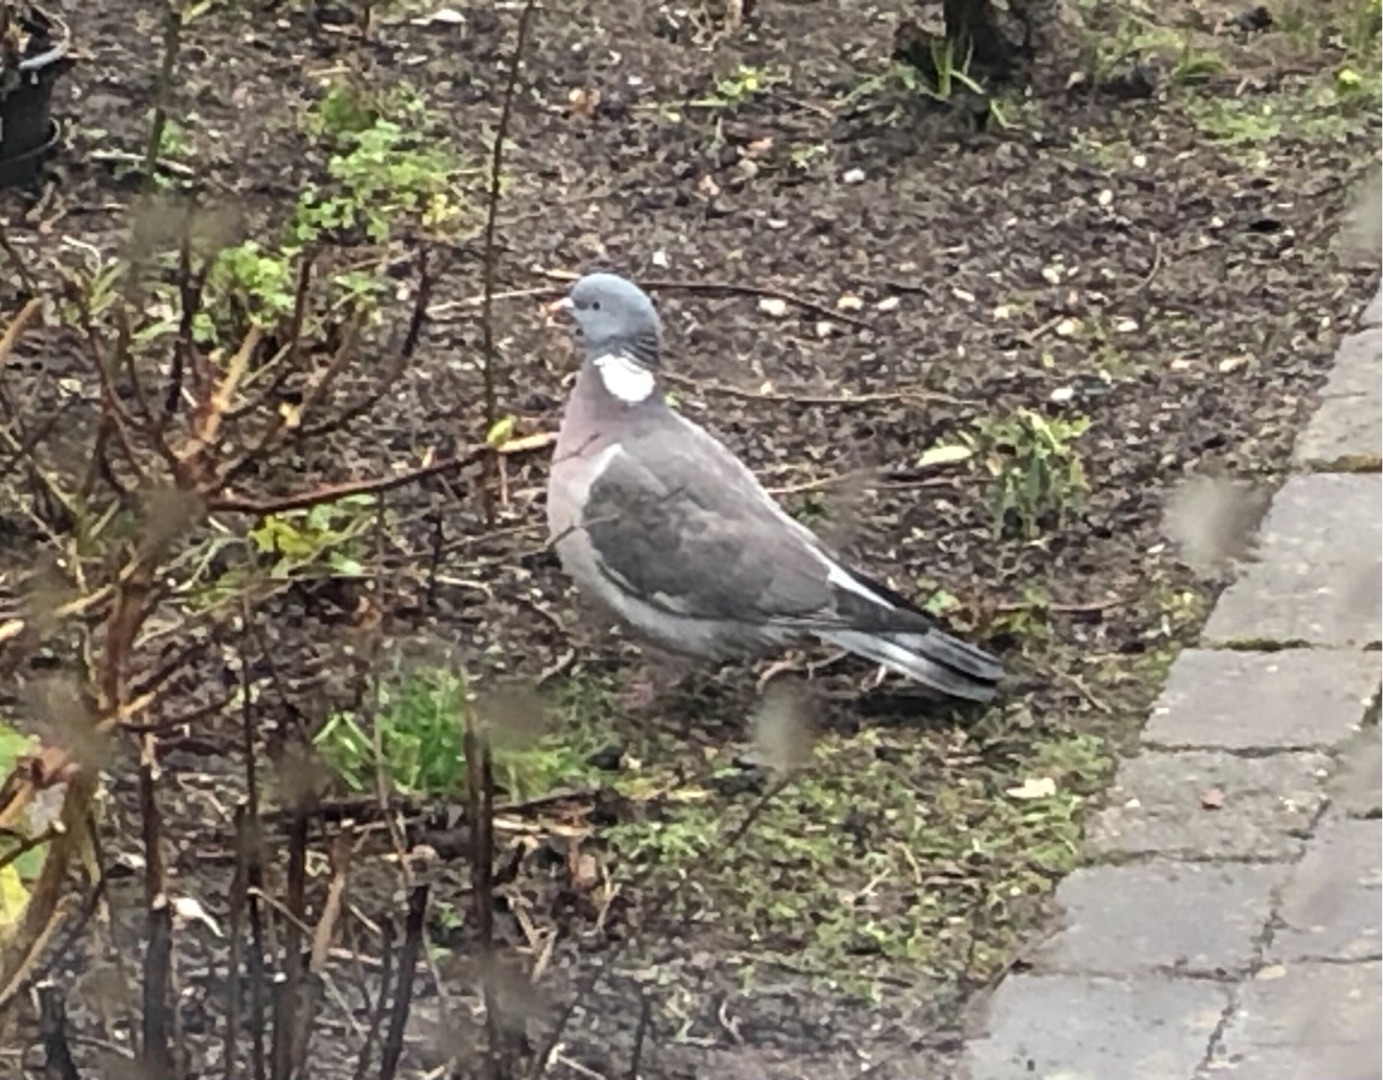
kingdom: Animalia
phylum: Chordata
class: Aves
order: Columbiformes
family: Columbidae
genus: Columba
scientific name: Columba palumbus
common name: Ringdue
